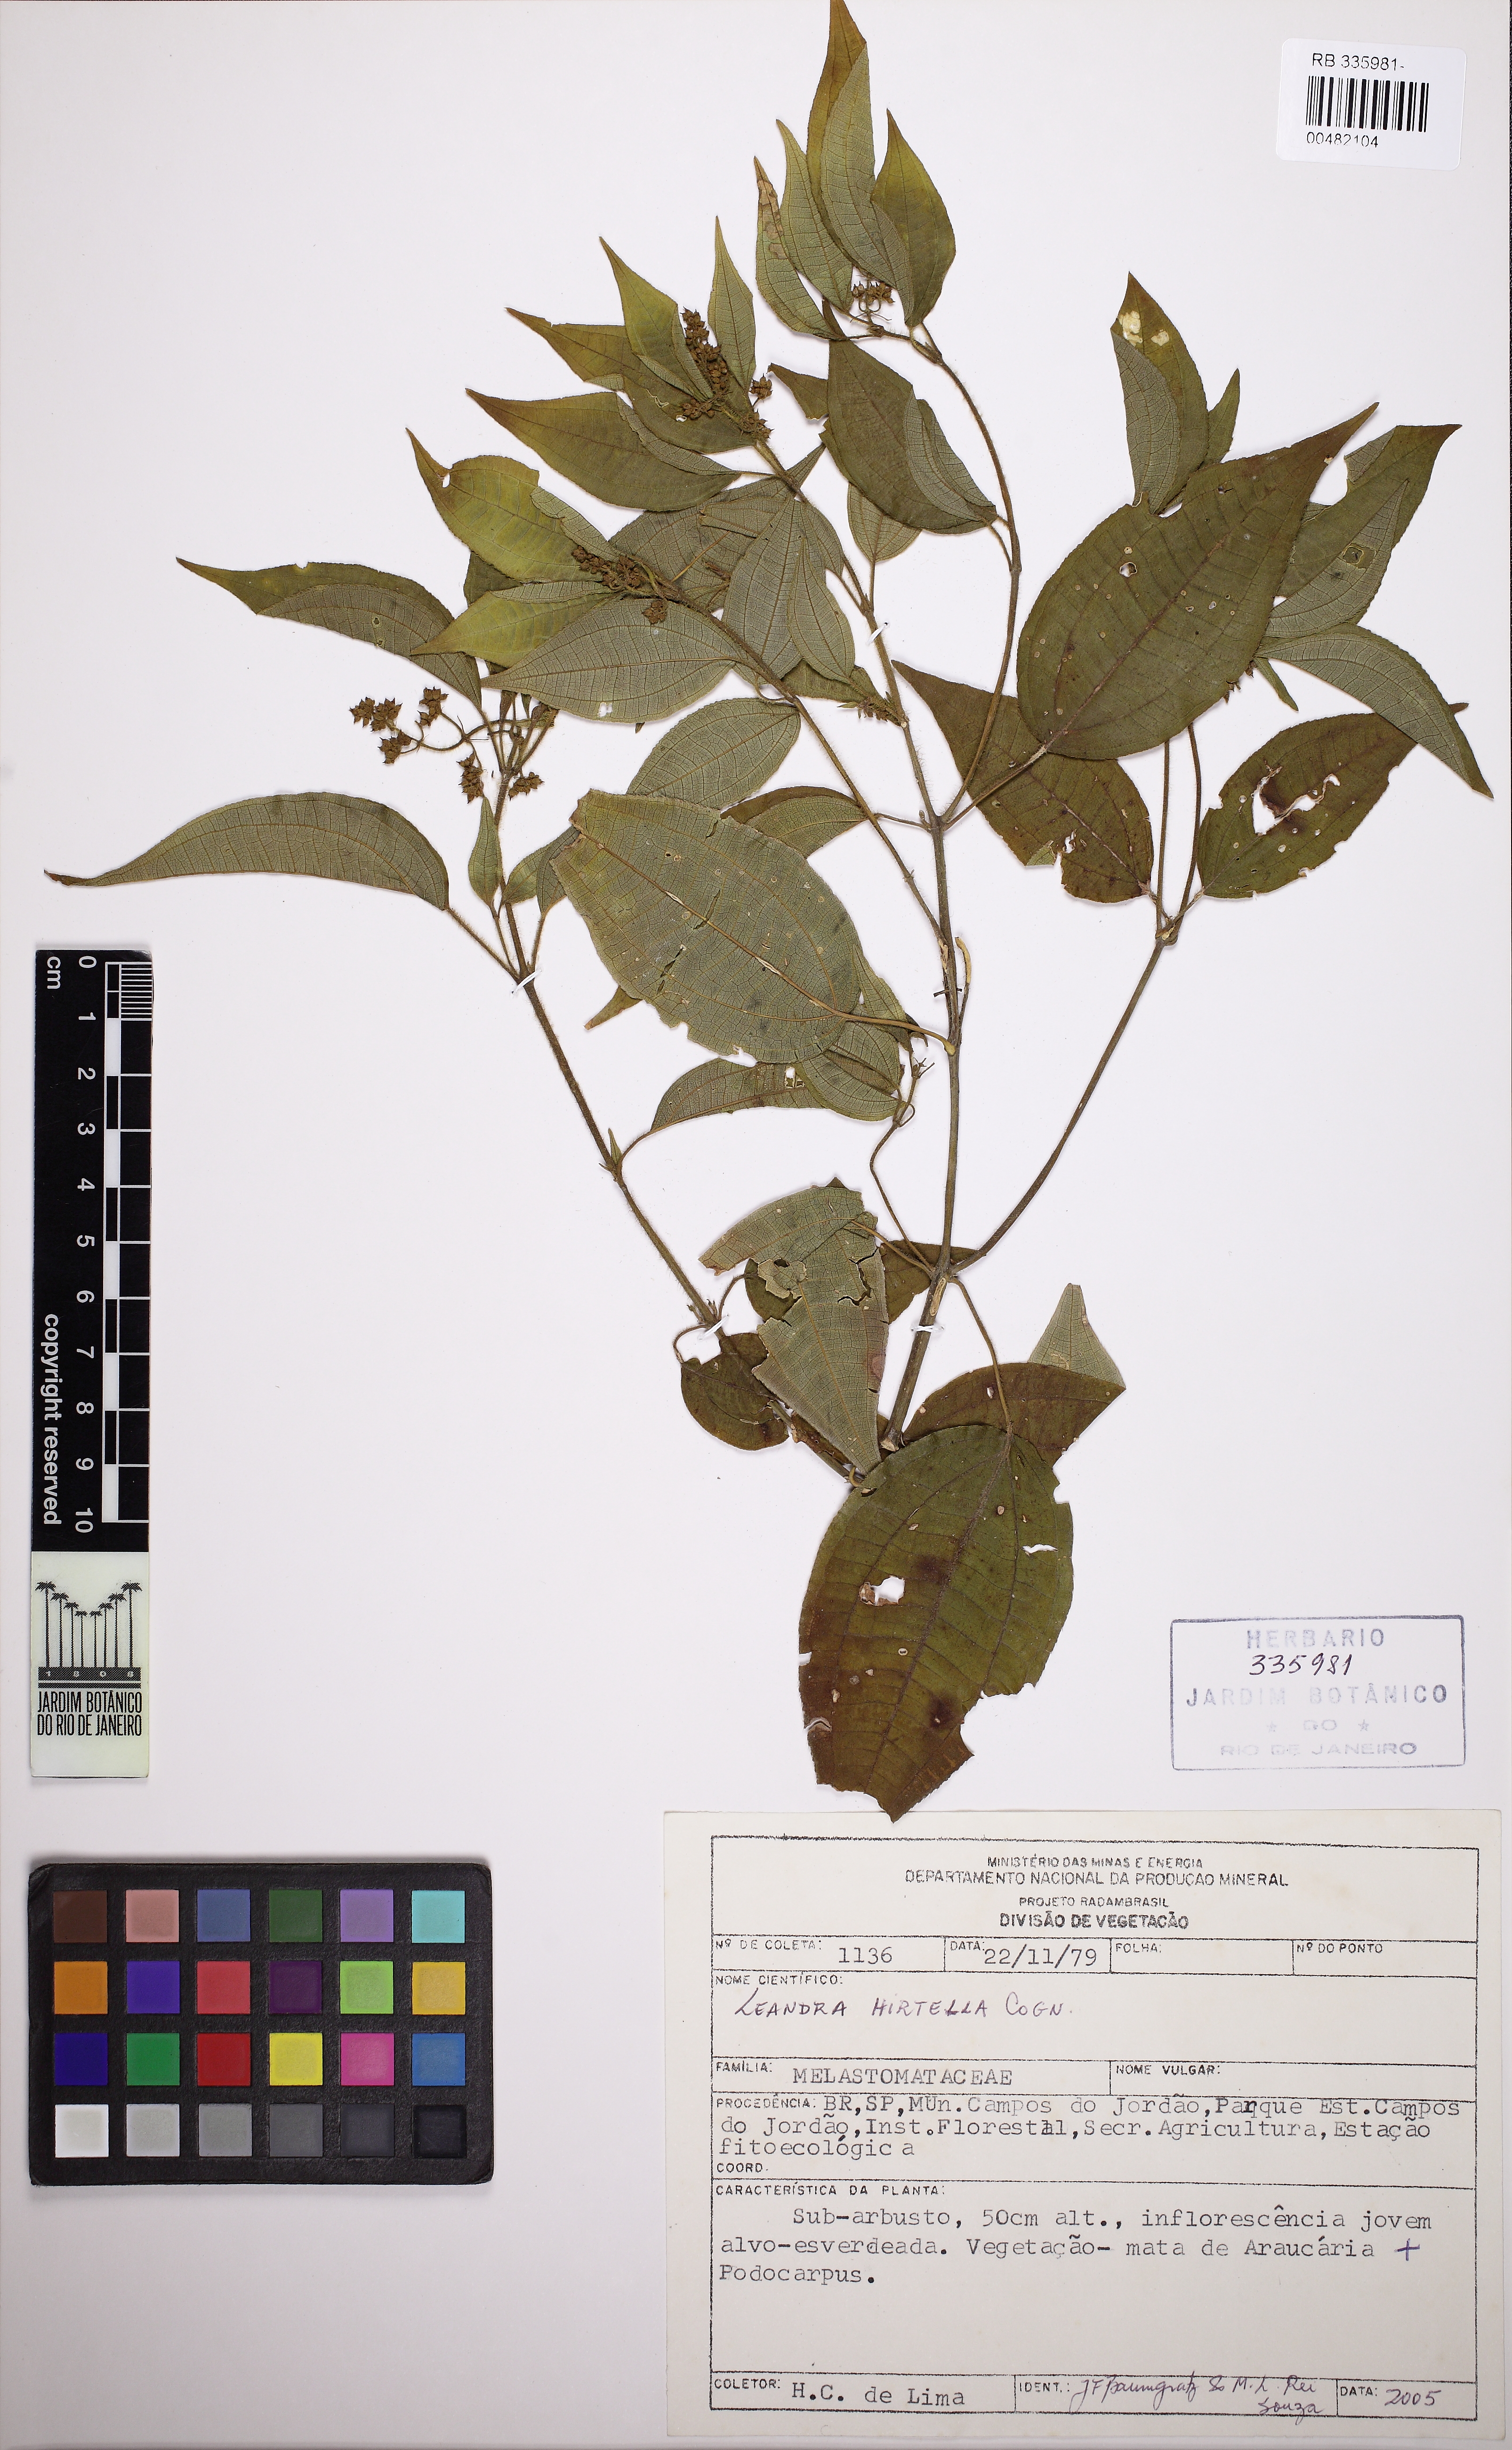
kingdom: Plantae
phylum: Tracheophyta
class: Magnoliopsida
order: Myrtales
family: Melastomataceae
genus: Miconia
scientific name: Miconia leahirtella
